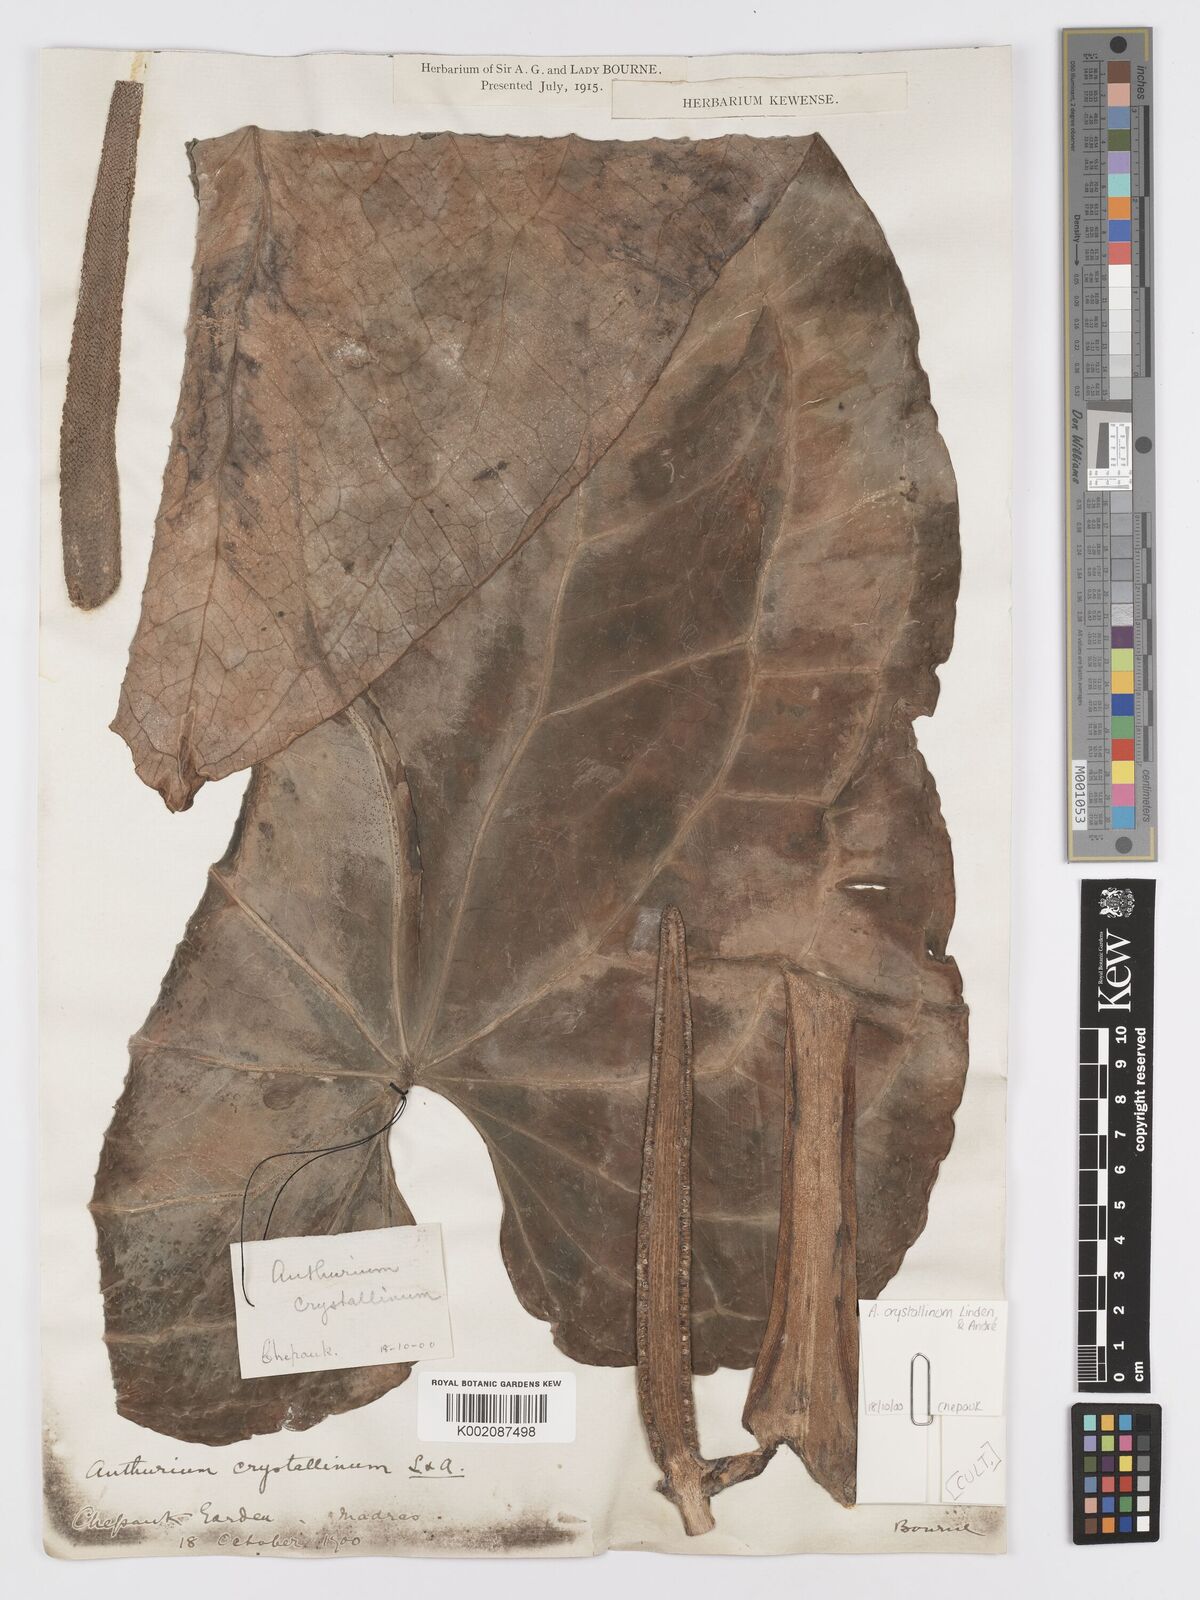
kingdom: Plantae
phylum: Tracheophyta
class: Liliopsida
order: Alismatales
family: Araceae
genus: Anthurium
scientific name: Anthurium crystallinum
